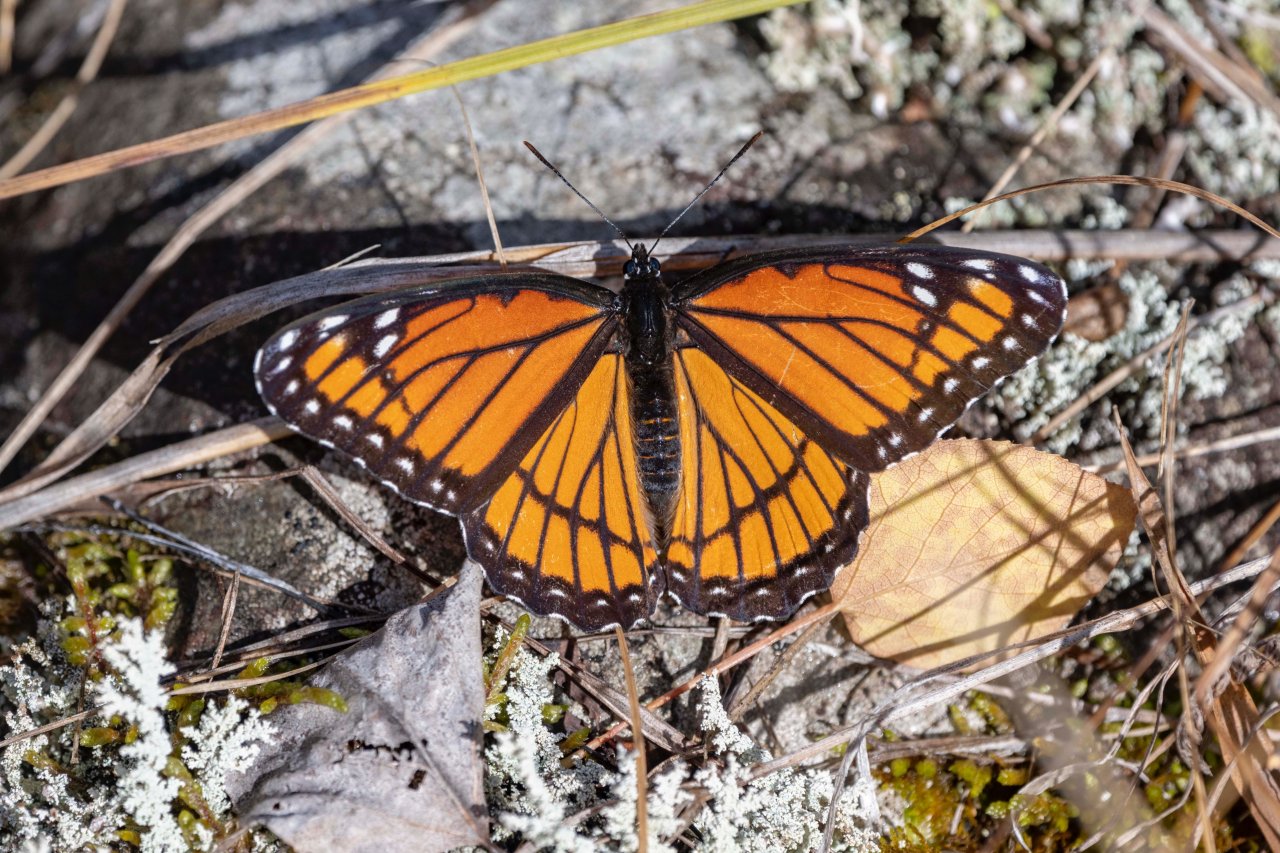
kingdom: Animalia
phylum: Arthropoda
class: Insecta
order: Lepidoptera
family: Nymphalidae
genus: Limenitis
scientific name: Limenitis archippus
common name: Viceroy
